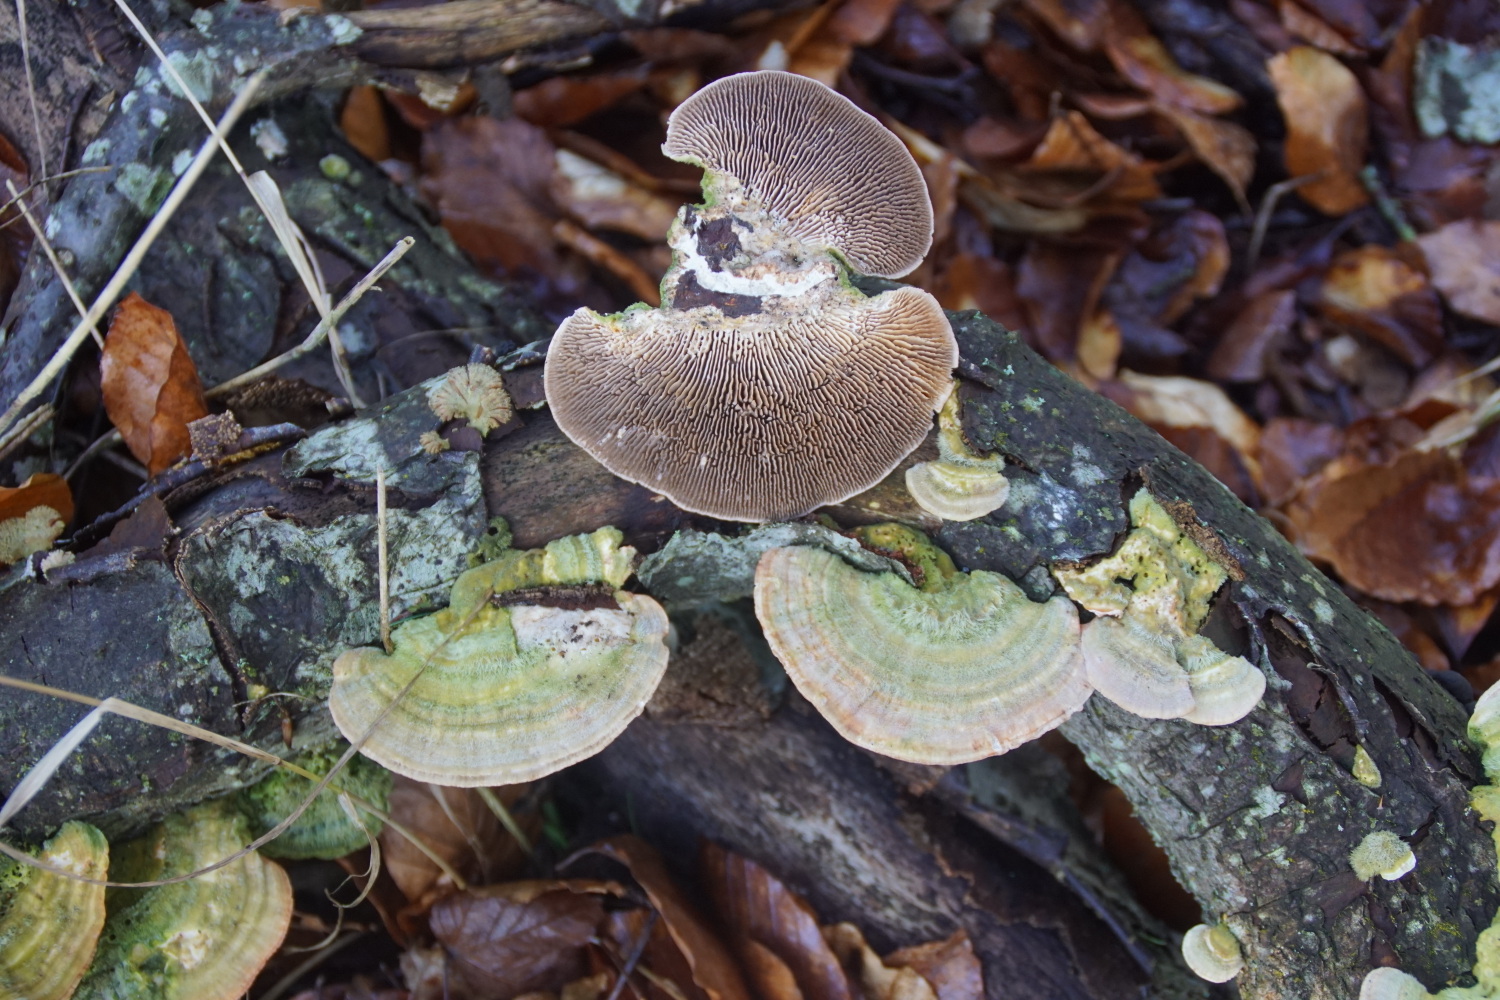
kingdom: Fungi
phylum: Basidiomycota
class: Agaricomycetes
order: Polyporales
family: Polyporaceae
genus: Lenzites
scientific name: Lenzites betulinus
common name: birke-læderporesvamp
